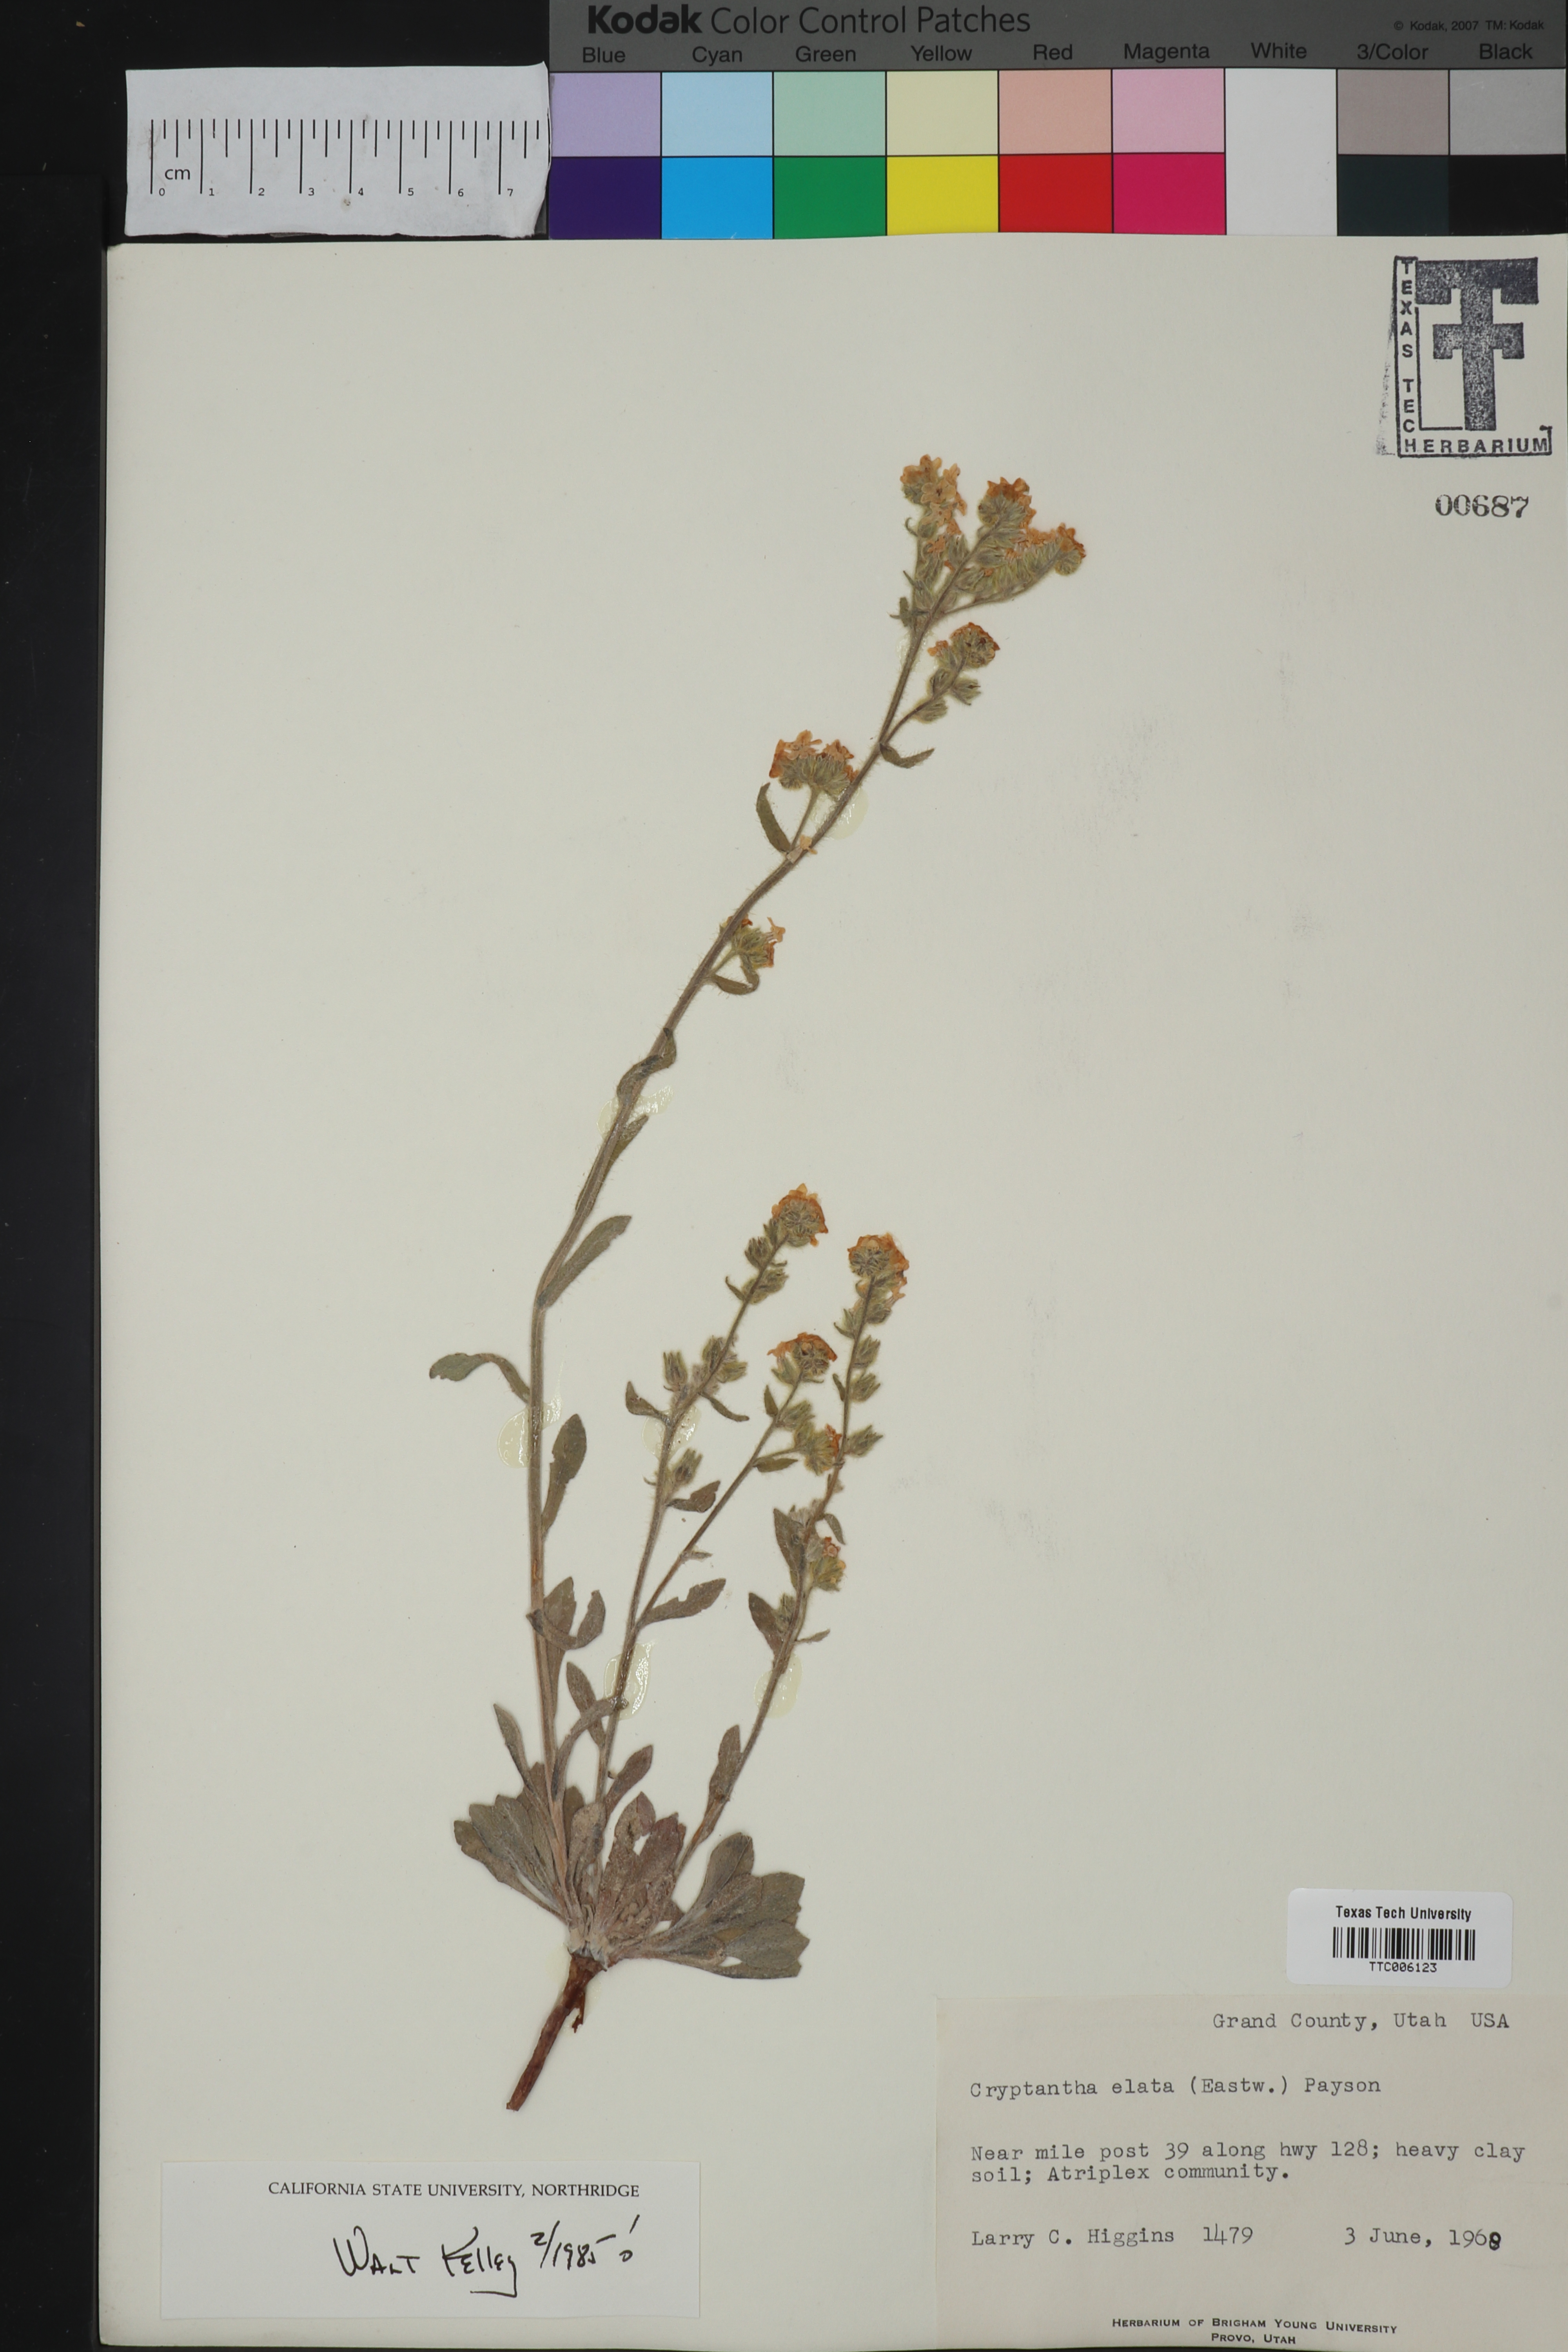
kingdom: Plantae
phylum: Tracheophyta
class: Magnoliopsida
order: Boraginales
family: Boraginaceae
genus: Oreocarya
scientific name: Oreocarya elata
